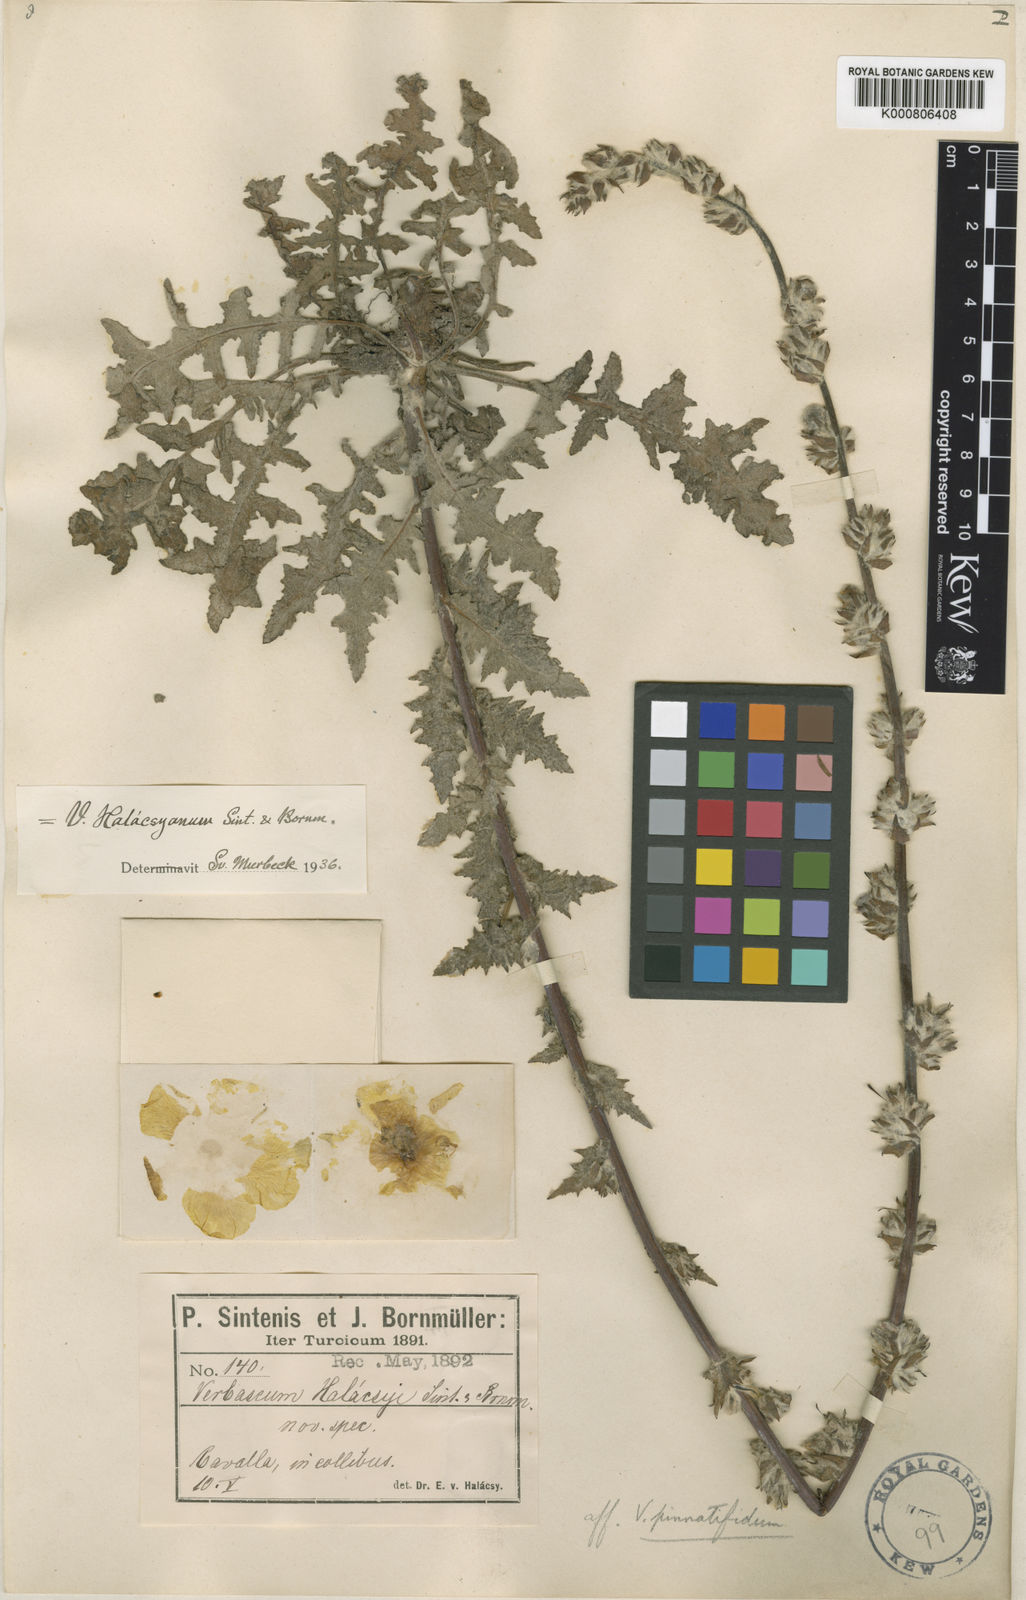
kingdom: Plantae
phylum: Tracheophyta
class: Magnoliopsida
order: Lamiales
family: Scrophulariaceae
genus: Verbascum
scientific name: Verbascum
